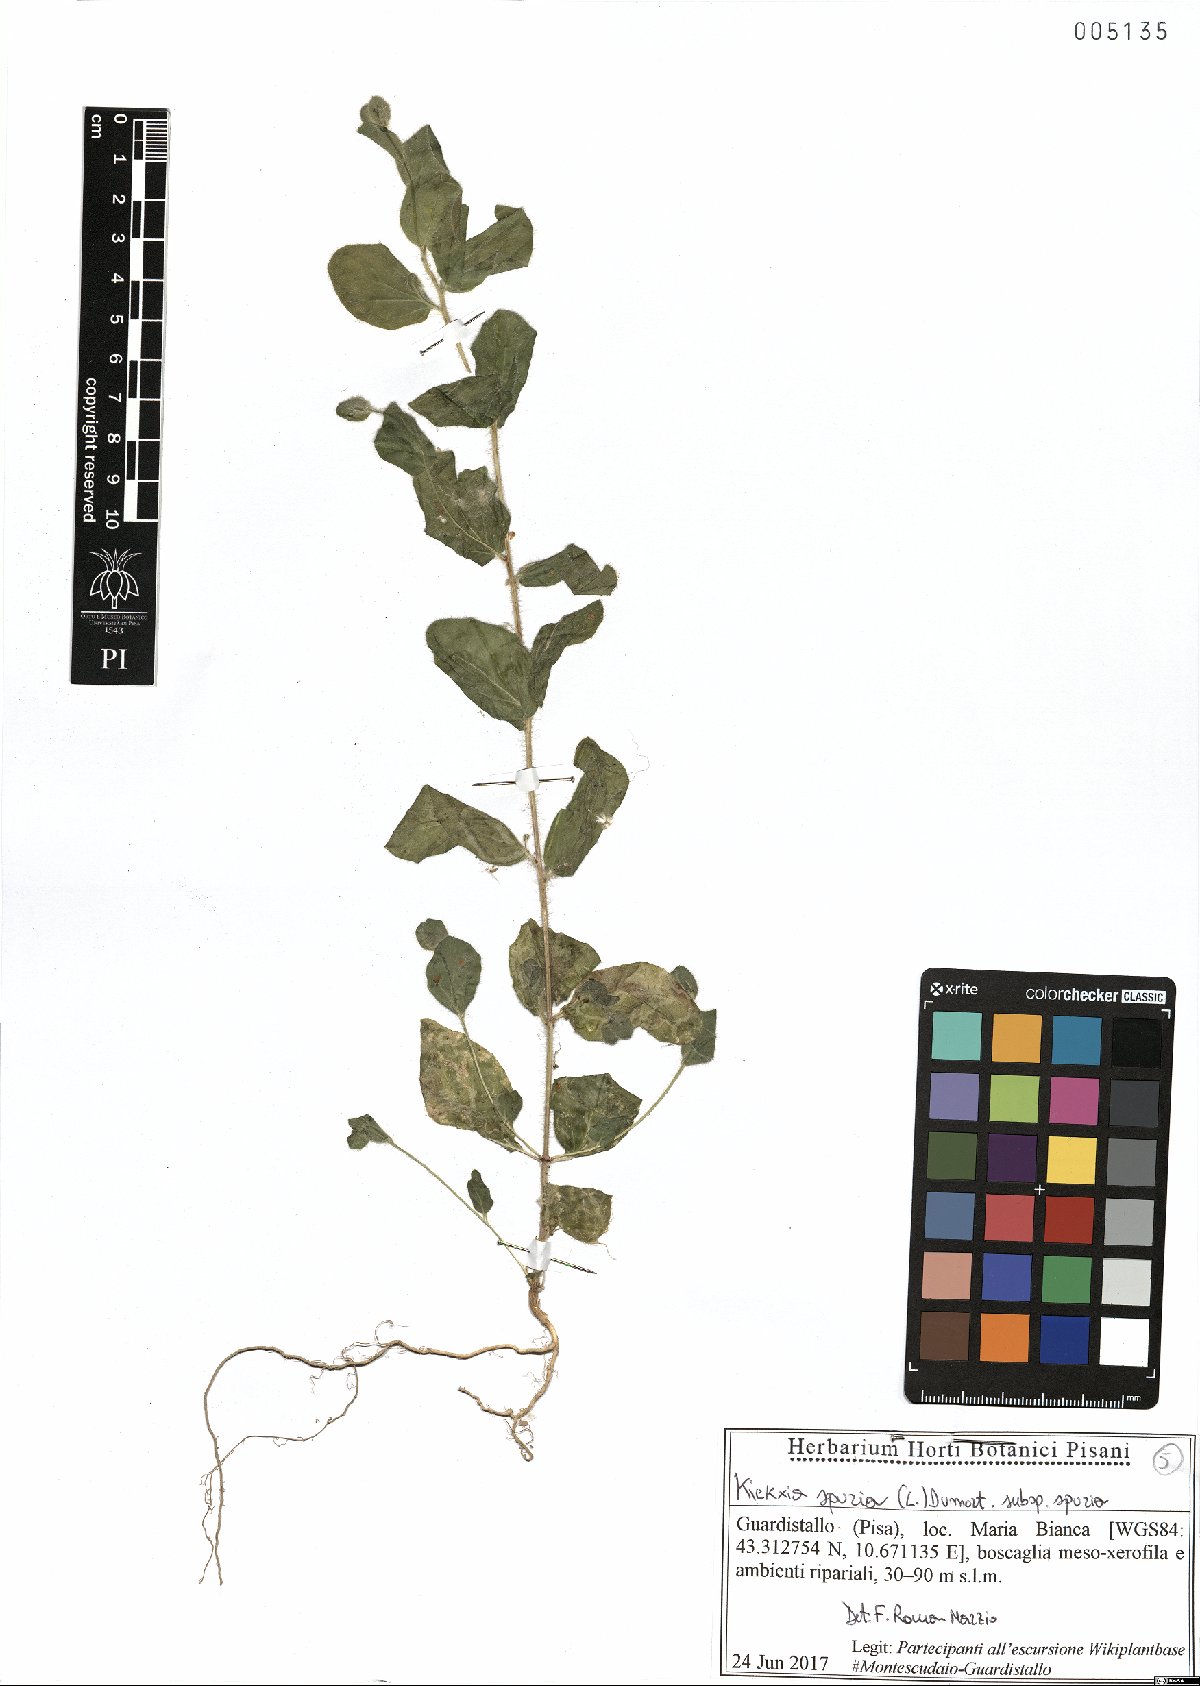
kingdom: Plantae
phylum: Tracheophyta
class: Magnoliopsida
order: Lamiales
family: Plantaginaceae
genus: Kickxia
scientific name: Kickxia spuria
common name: Round-leaved fluellen
